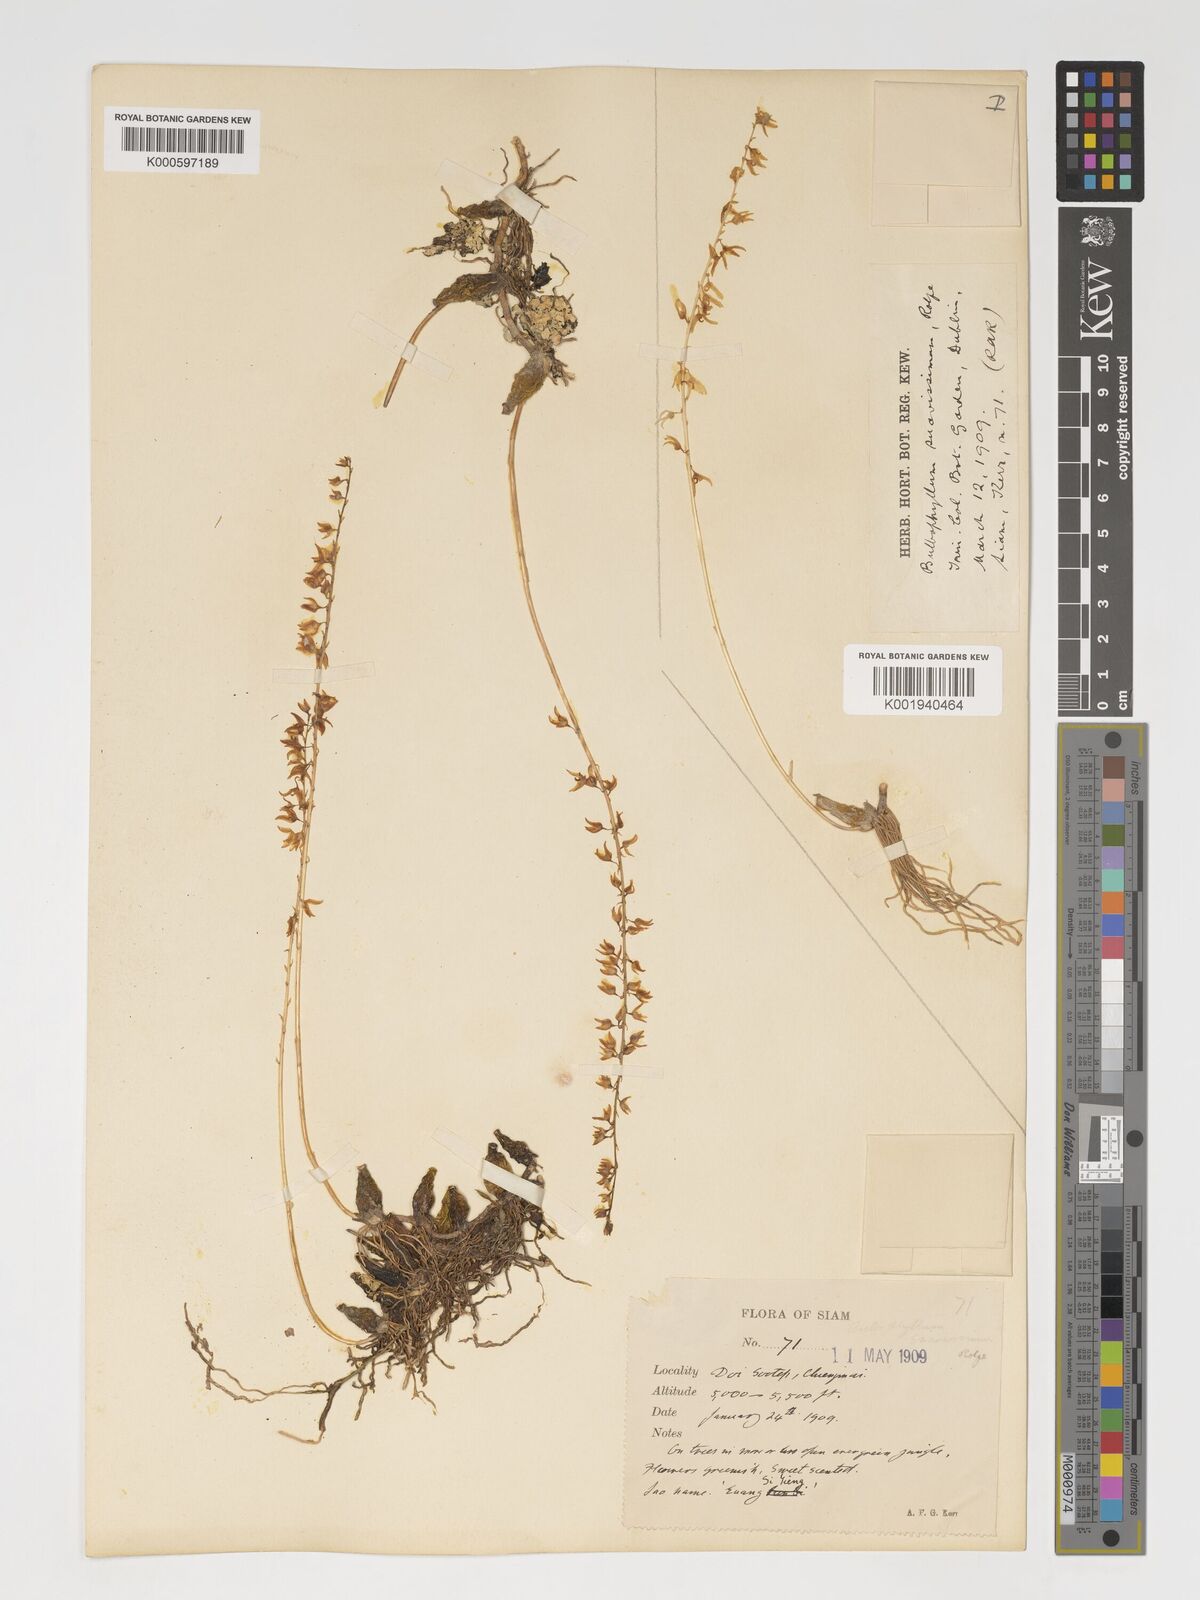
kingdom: Plantae
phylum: Tracheophyta
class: Liliopsida
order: Asparagales
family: Orchidaceae
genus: Bulbophyllum
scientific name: Bulbophyllum suavissimum
